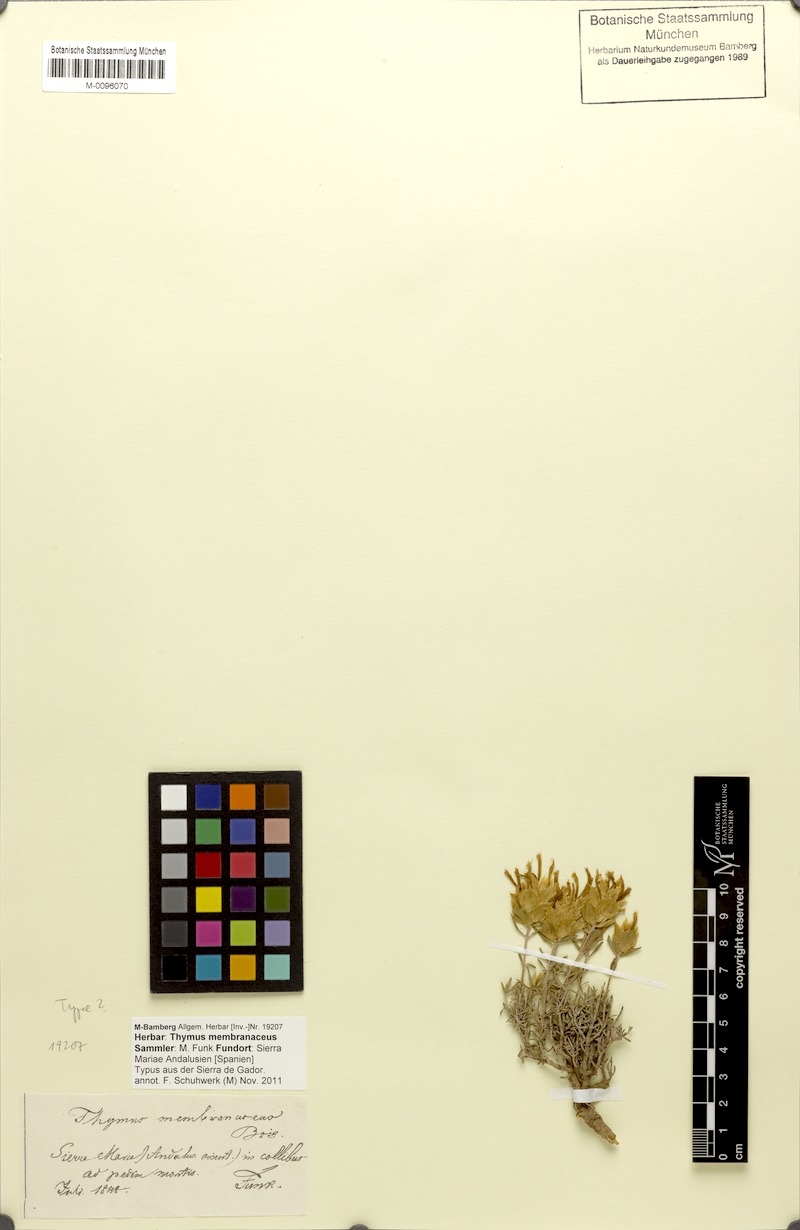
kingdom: Plantae
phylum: Tracheophyta
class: Magnoliopsida
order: Lamiales
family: Lamiaceae
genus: Thymus
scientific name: Thymus membranaceus
